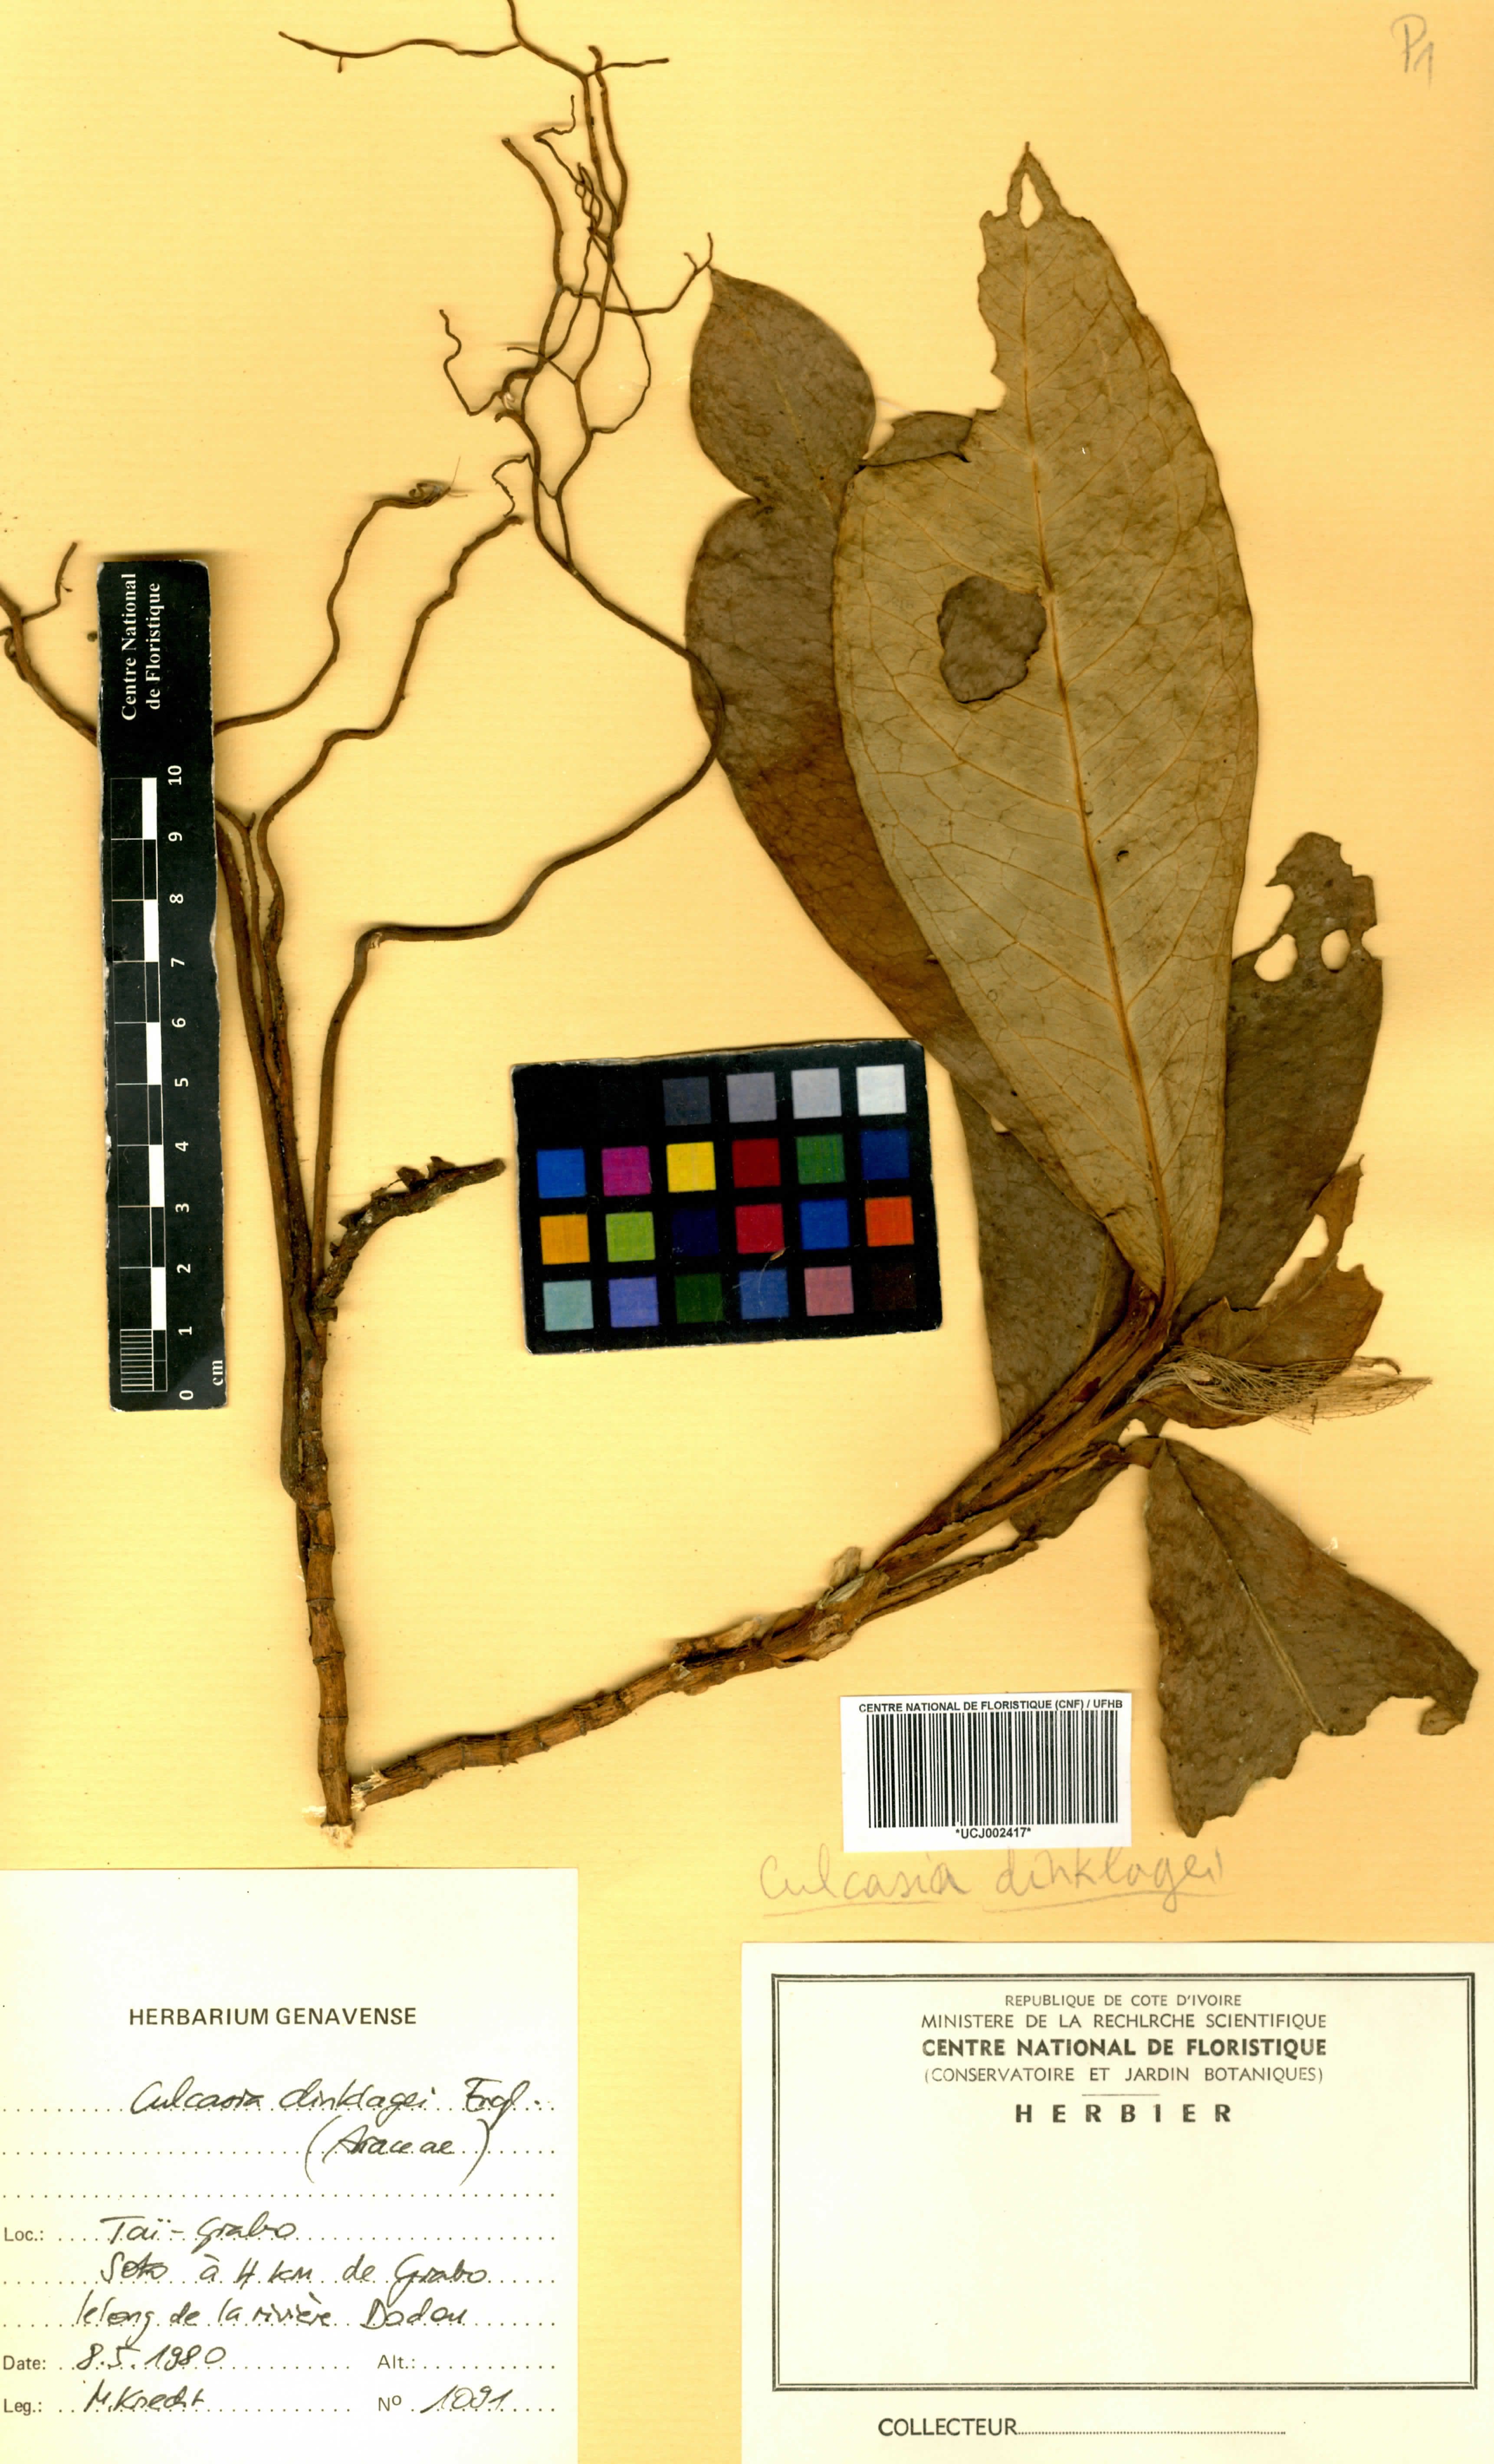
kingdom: Plantae
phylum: Tracheophyta
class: Liliopsida
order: Alismatales
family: Araceae
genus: Culcasia
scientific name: Culcasia striolata
